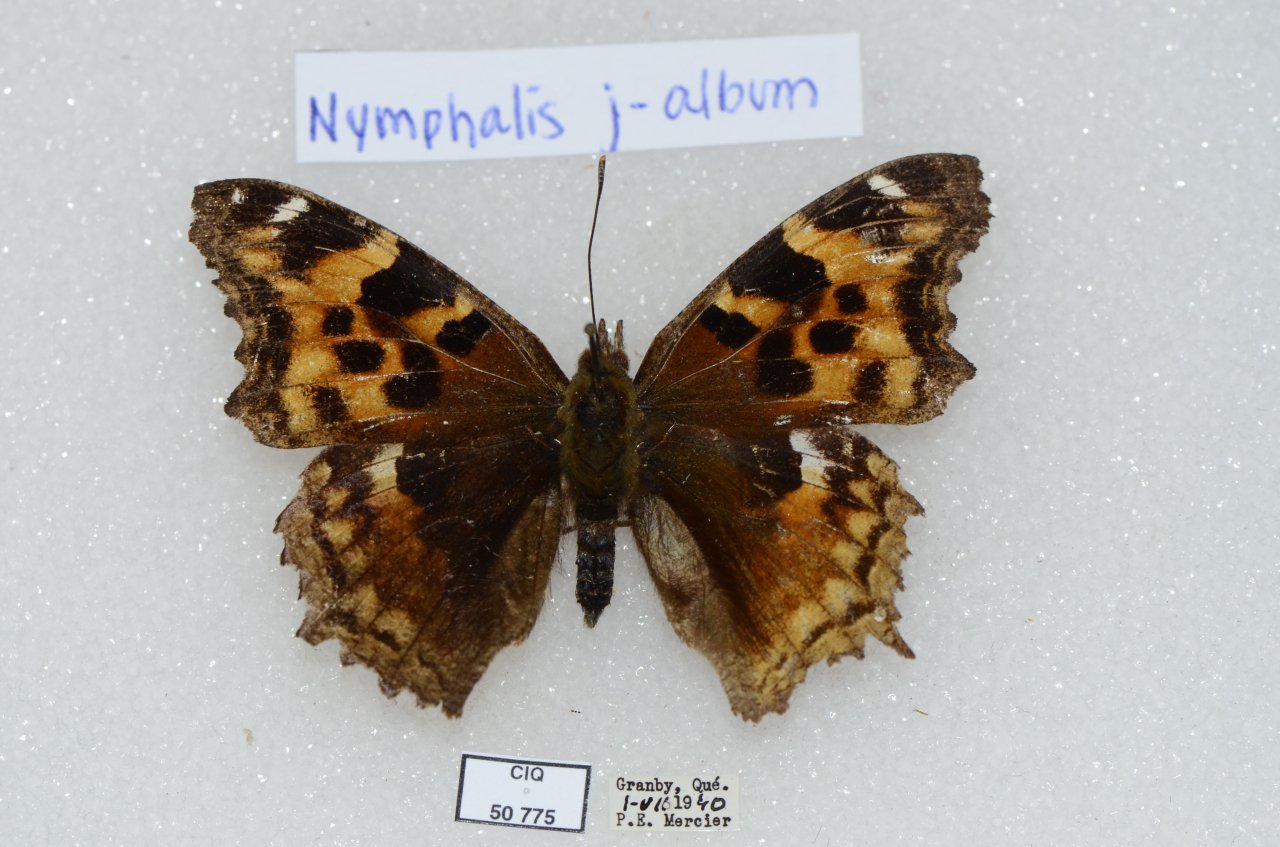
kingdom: Animalia
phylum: Arthropoda
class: Insecta
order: Lepidoptera
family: Nymphalidae
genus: Polygonia
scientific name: Polygonia vaualbum
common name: Compton Tortoiseshell
